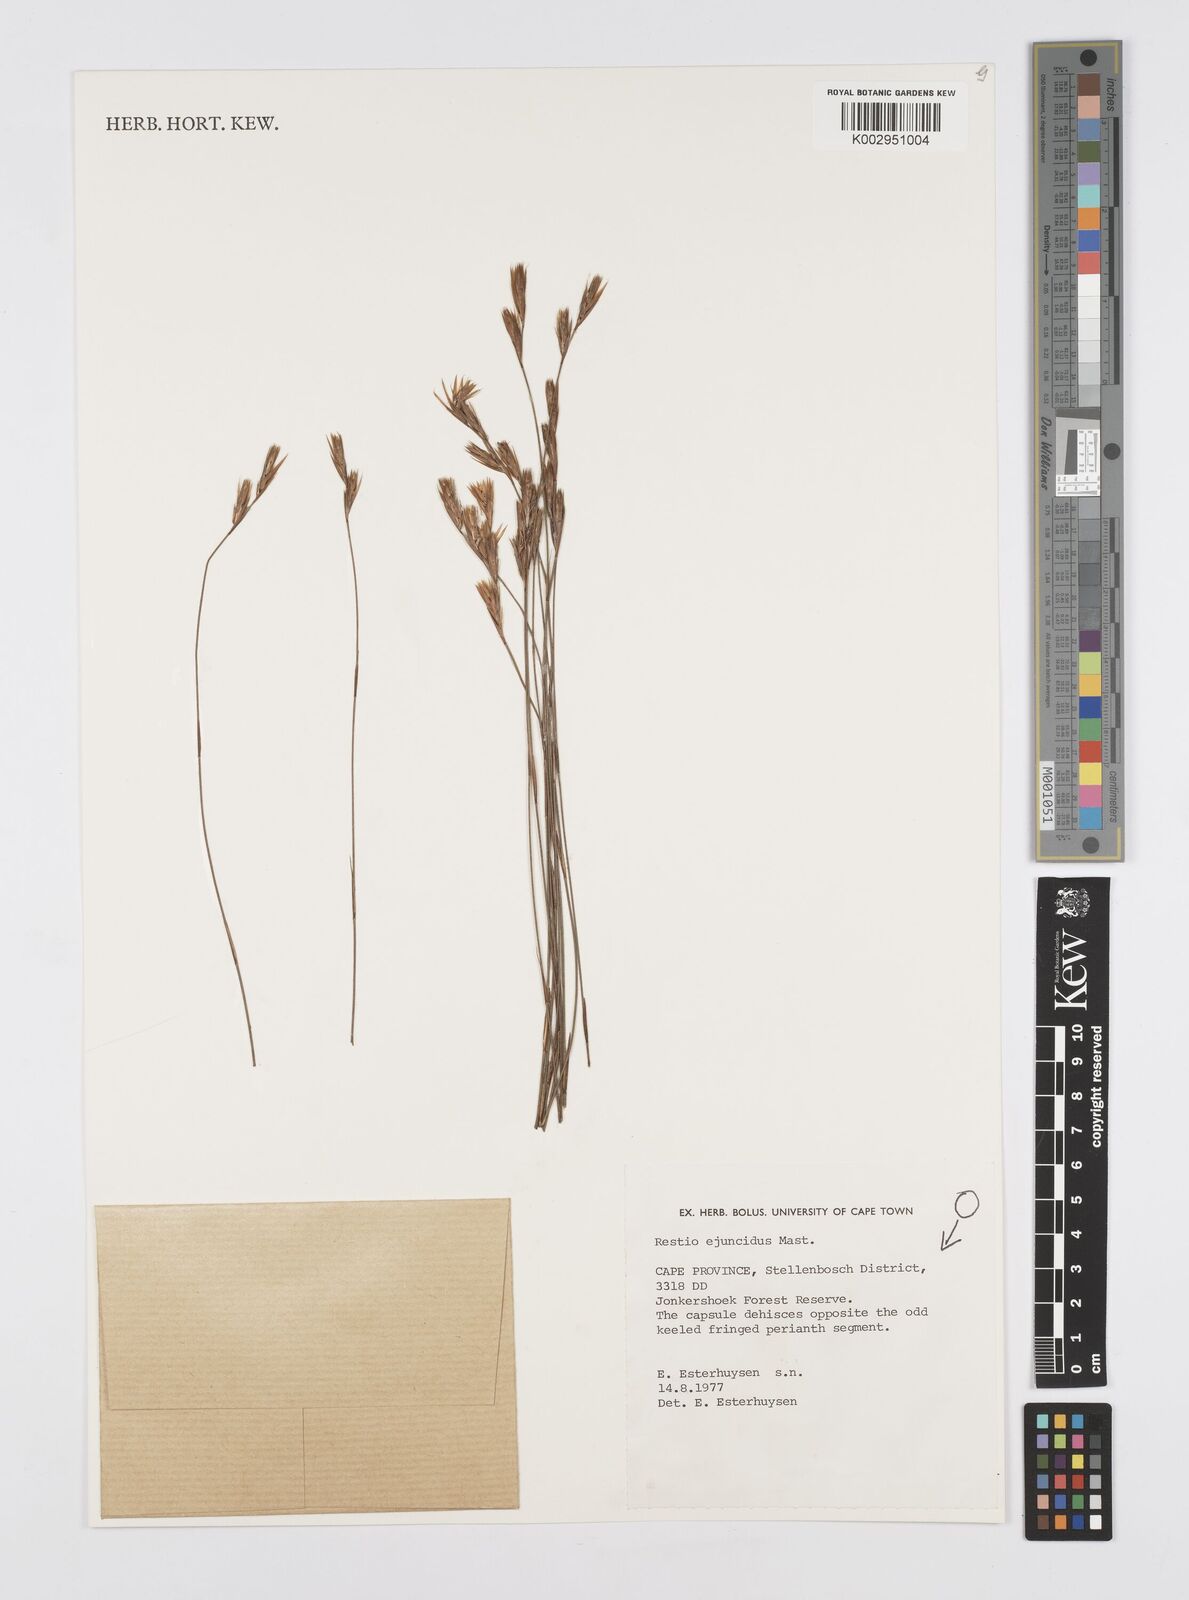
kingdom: Plantae
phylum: Tracheophyta
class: Liliopsida
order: Poales
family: Restionaceae
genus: Restio
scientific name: Restio ejuncidus
